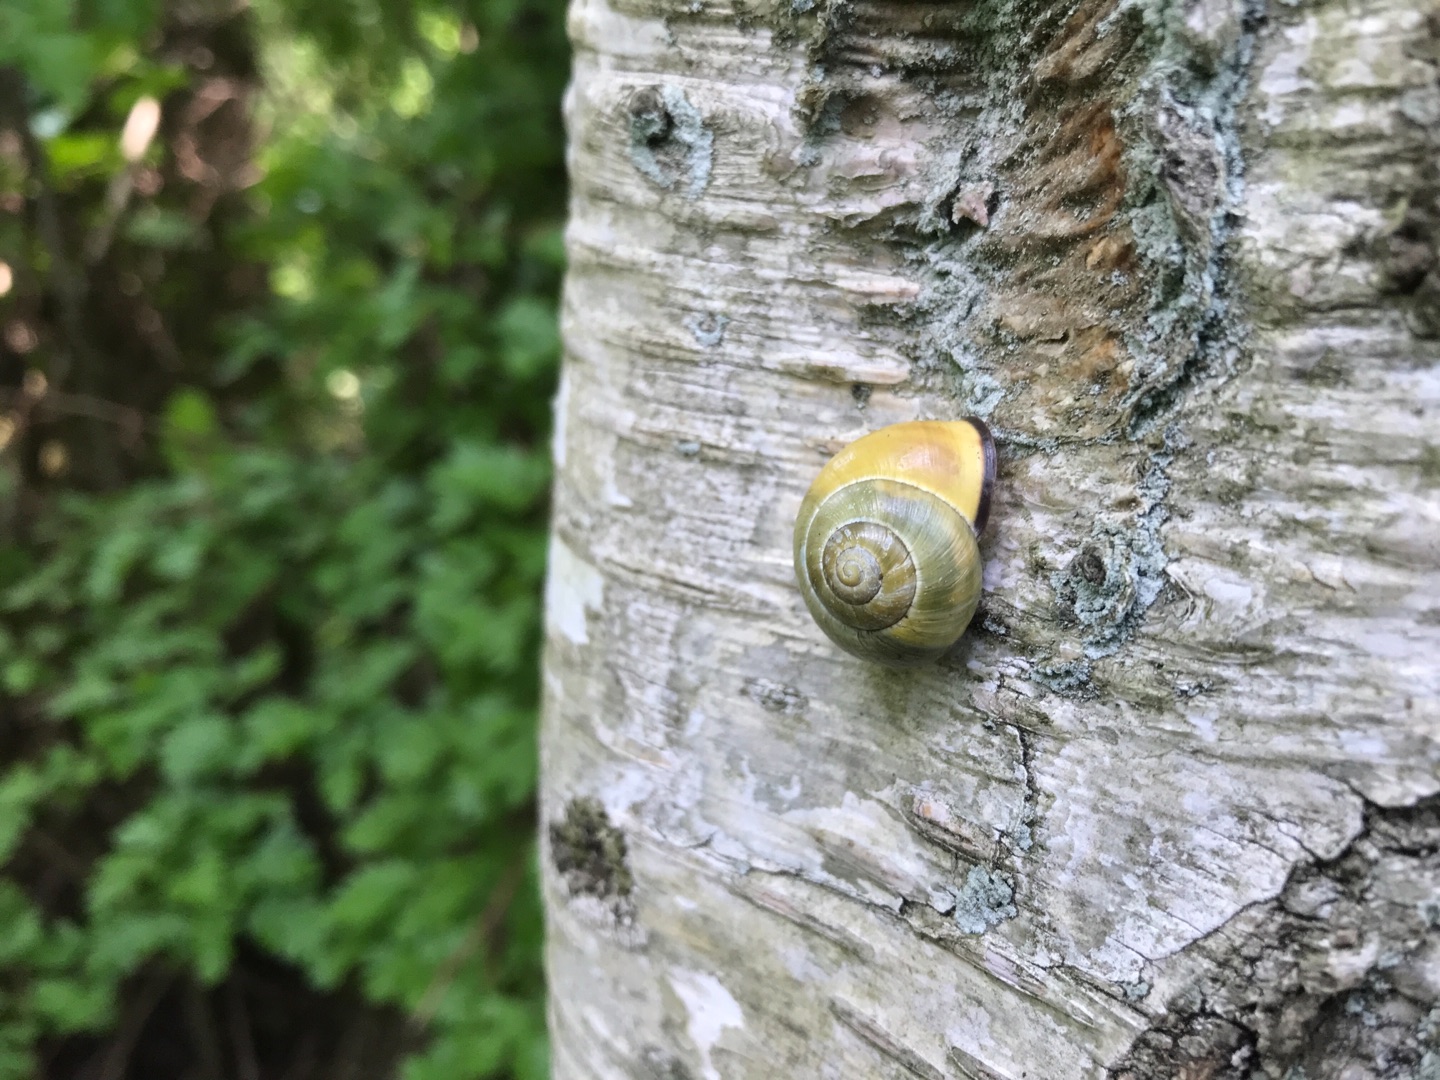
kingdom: Animalia
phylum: Mollusca
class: Gastropoda
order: Stylommatophora
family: Helicidae
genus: Cepaea
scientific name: Cepaea nemoralis
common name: Lundsnegl
